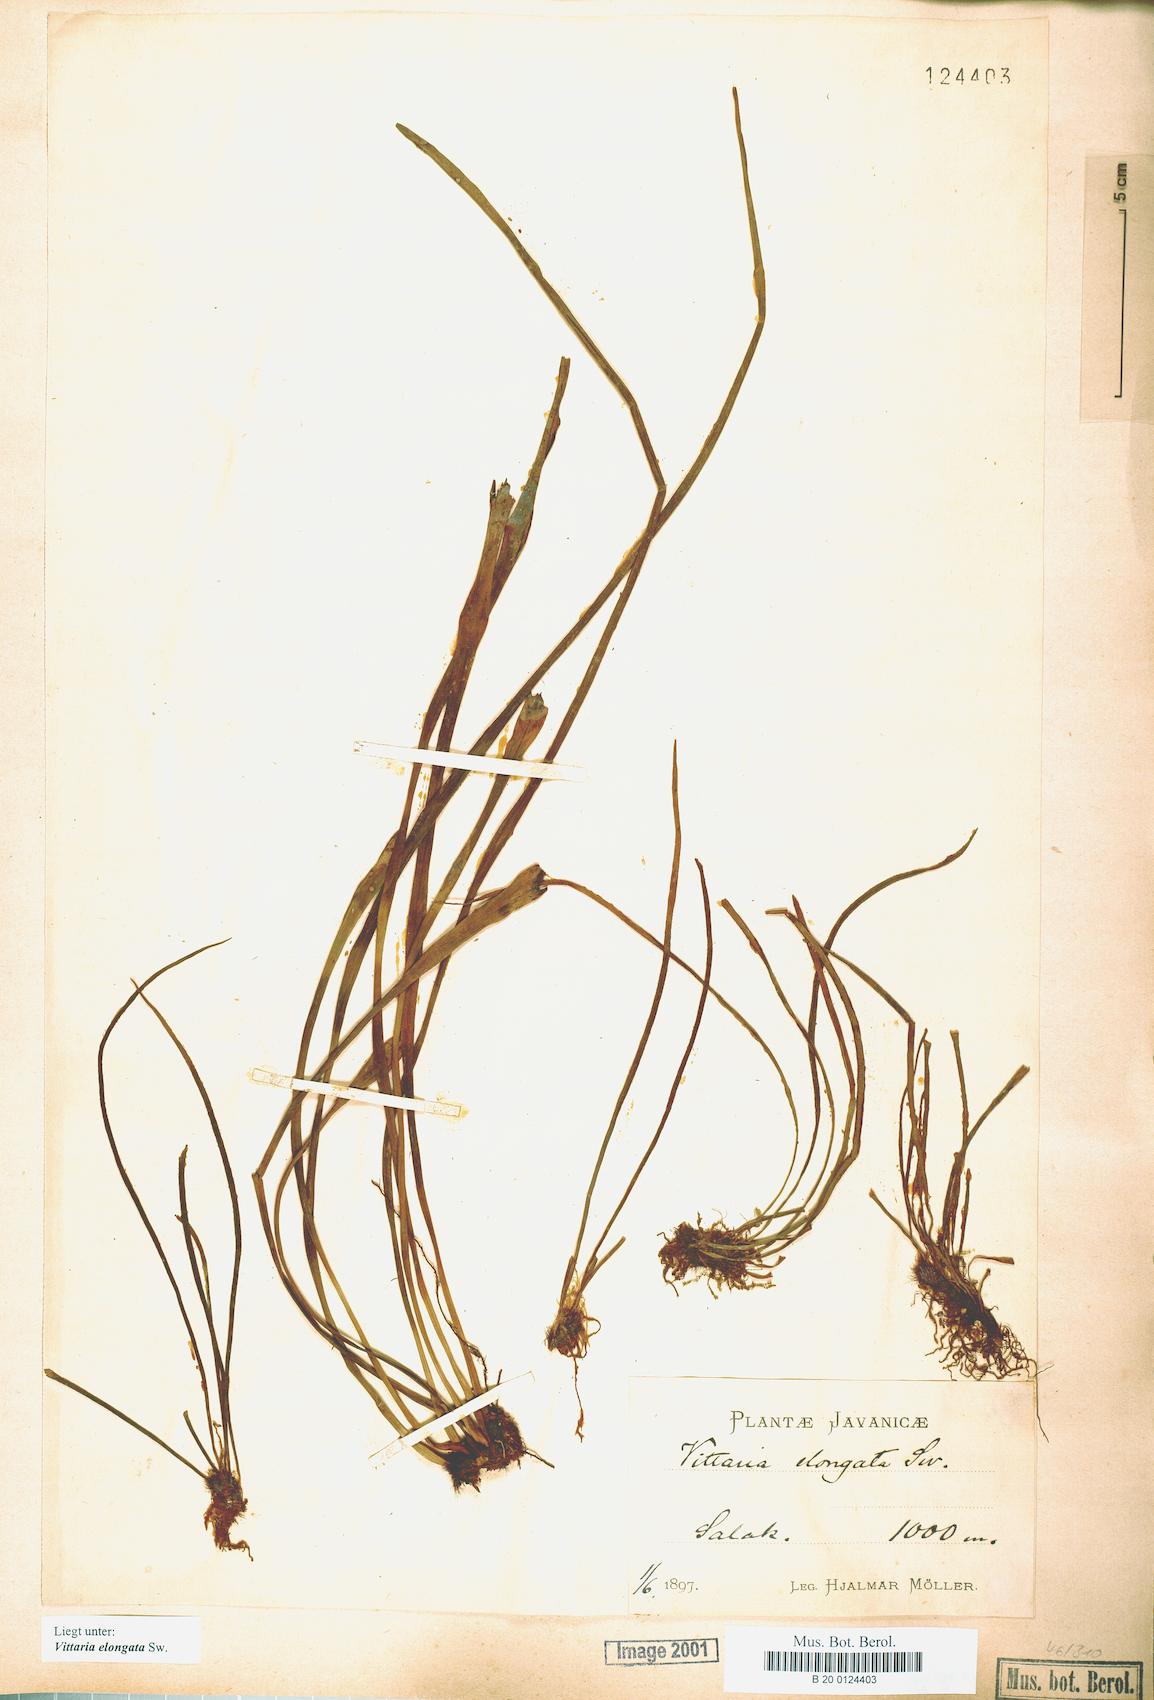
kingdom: Plantae
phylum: Tracheophyta
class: Polypodiopsida
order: Polypodiales
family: Pteridaceae
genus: Haplopteris
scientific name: Haplopteris elongata
